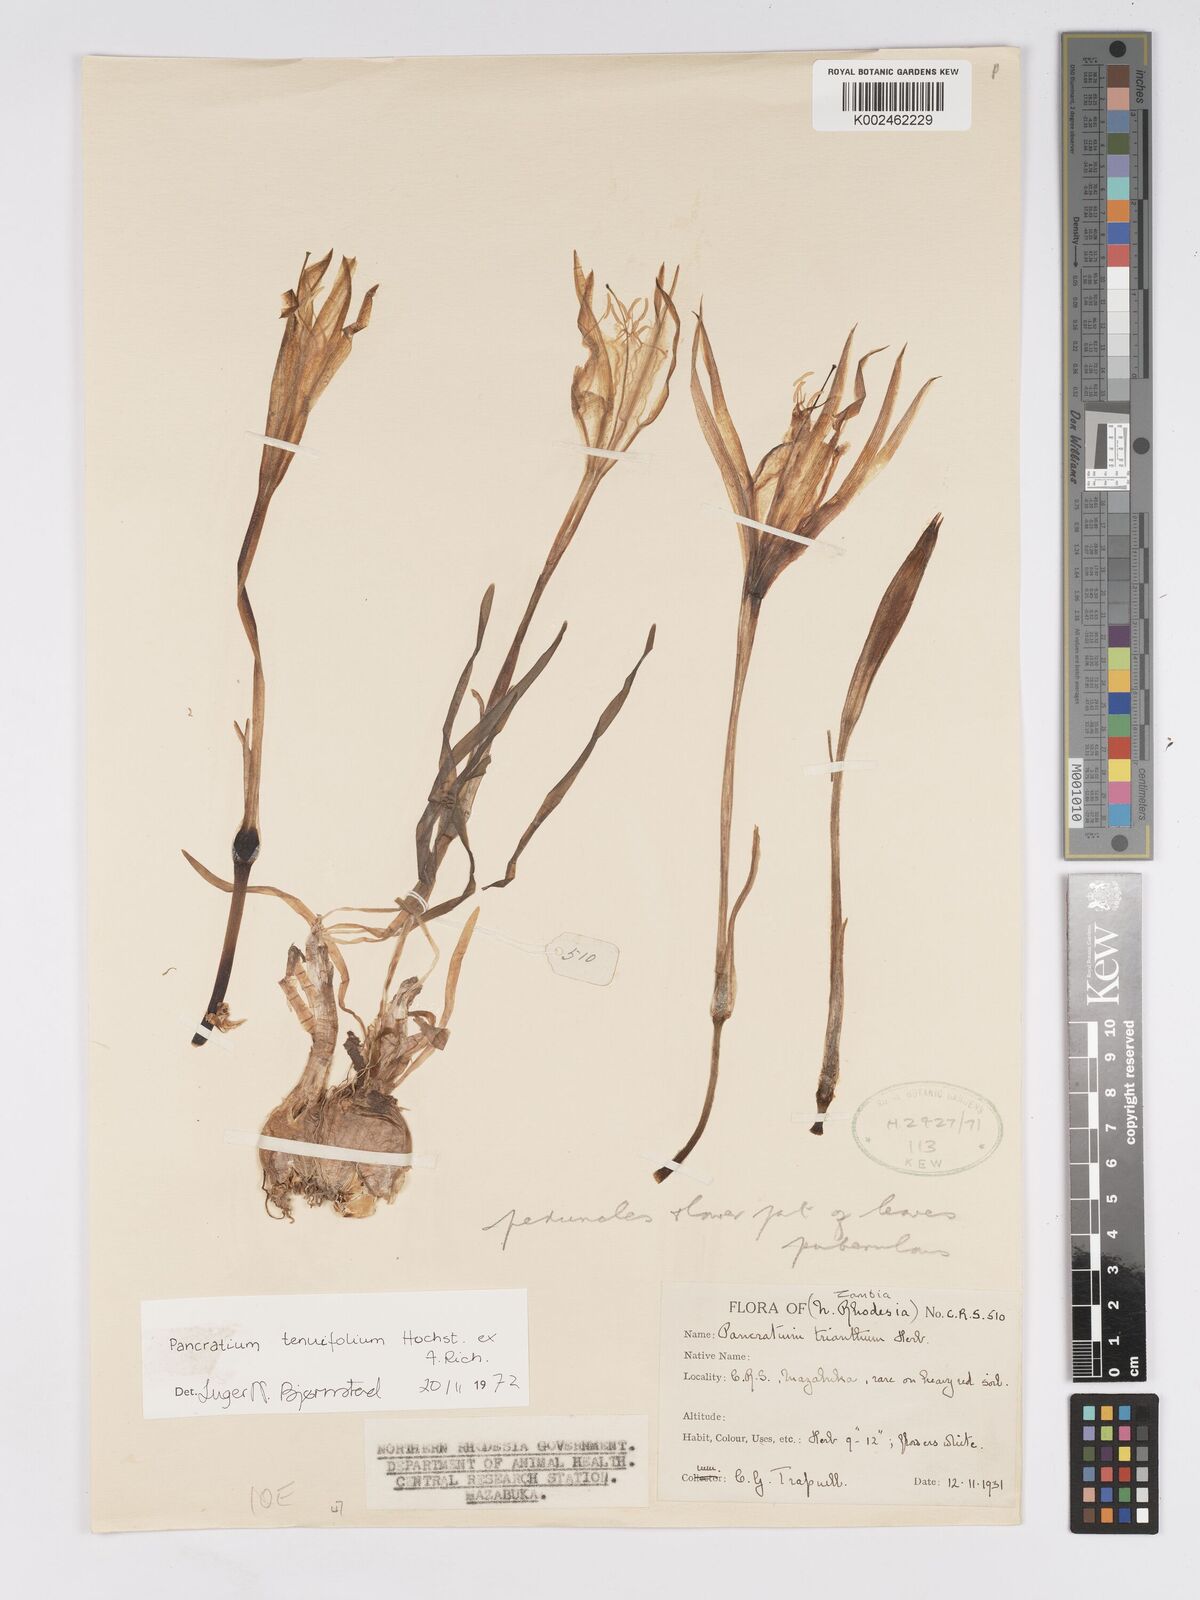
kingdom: Plantae
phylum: Tracheophyta
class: Liliopsida
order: Asparagales
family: Amaryllidaceae
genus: Pancratium
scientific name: Pancratium tenuifolium
